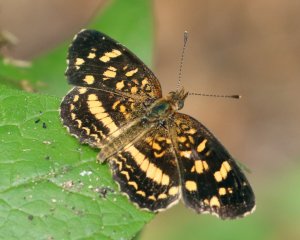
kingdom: Animalia
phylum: Arthropoda
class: Insecta
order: Lepidoptera
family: Nymphalidae
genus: Anthanassa
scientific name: Anthanassa tulcis
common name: Pale-banded Crescent
